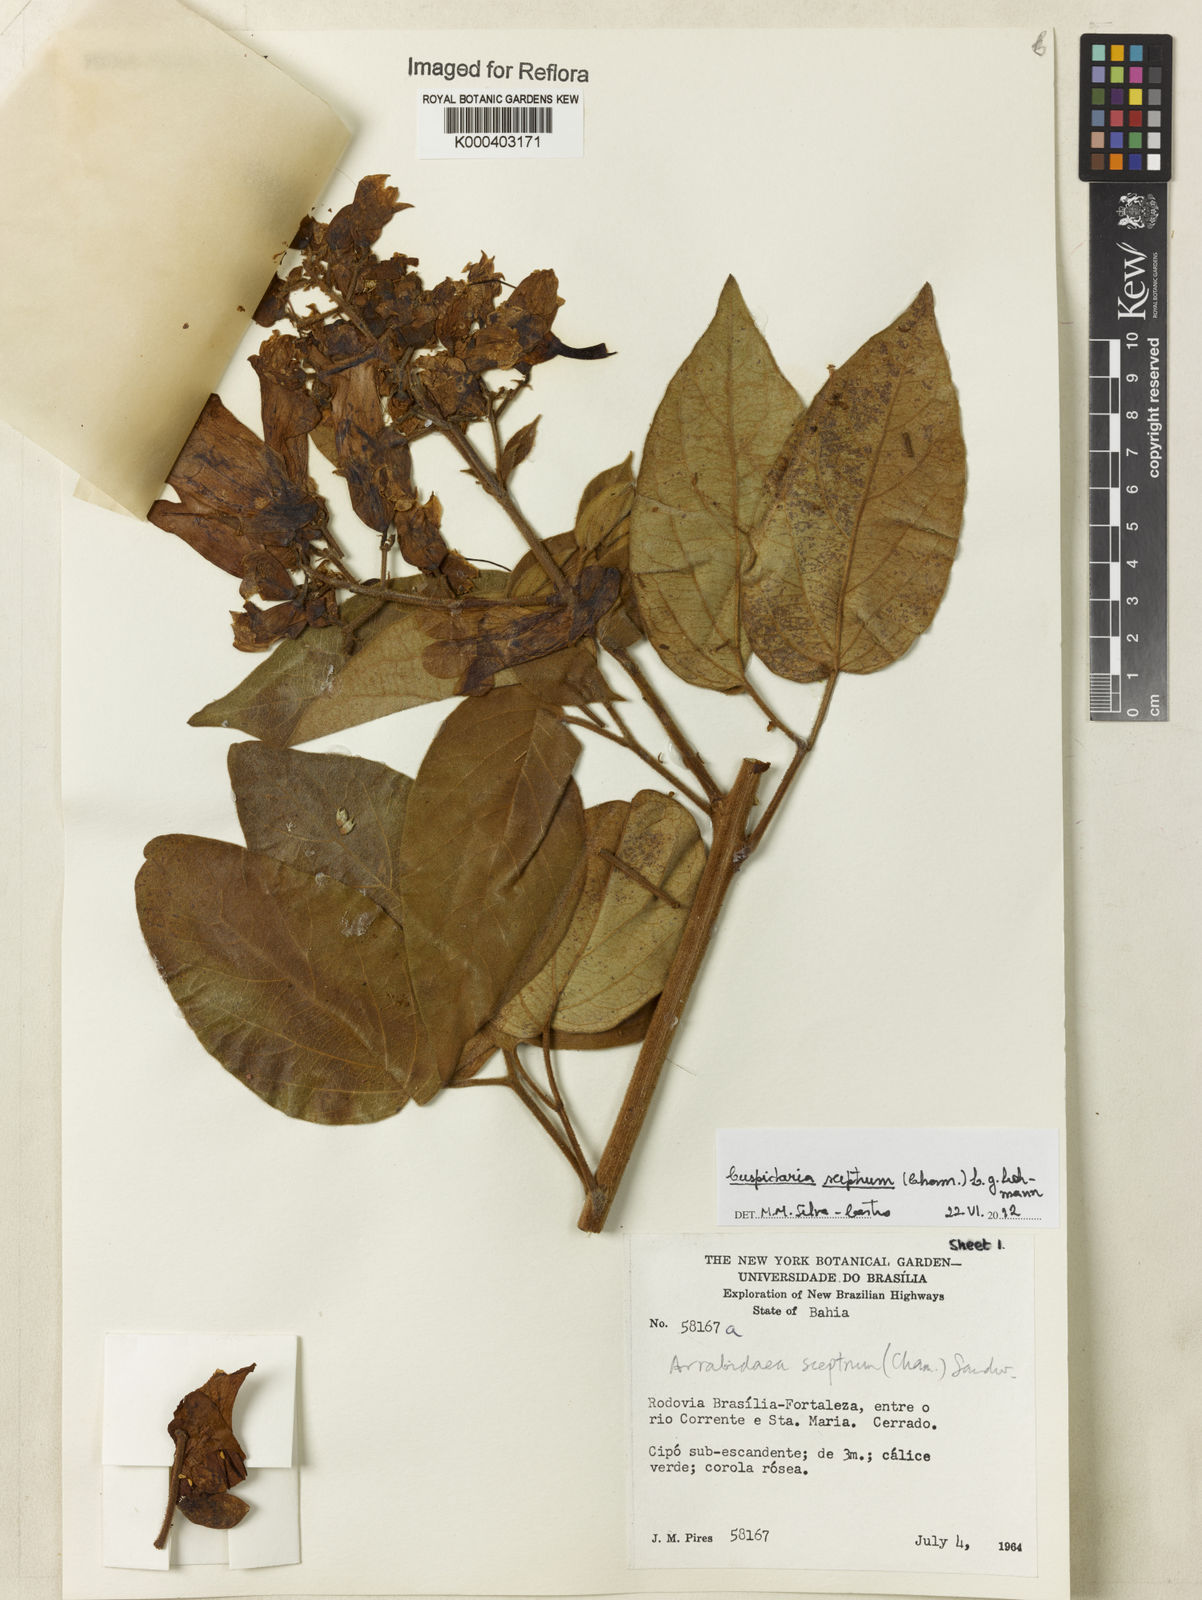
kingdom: Plantae
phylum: Tracheophyta
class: Magnoliopsida
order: Lamiales
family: Bignoniaceae
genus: Cuspidaria
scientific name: Cuspidaria
